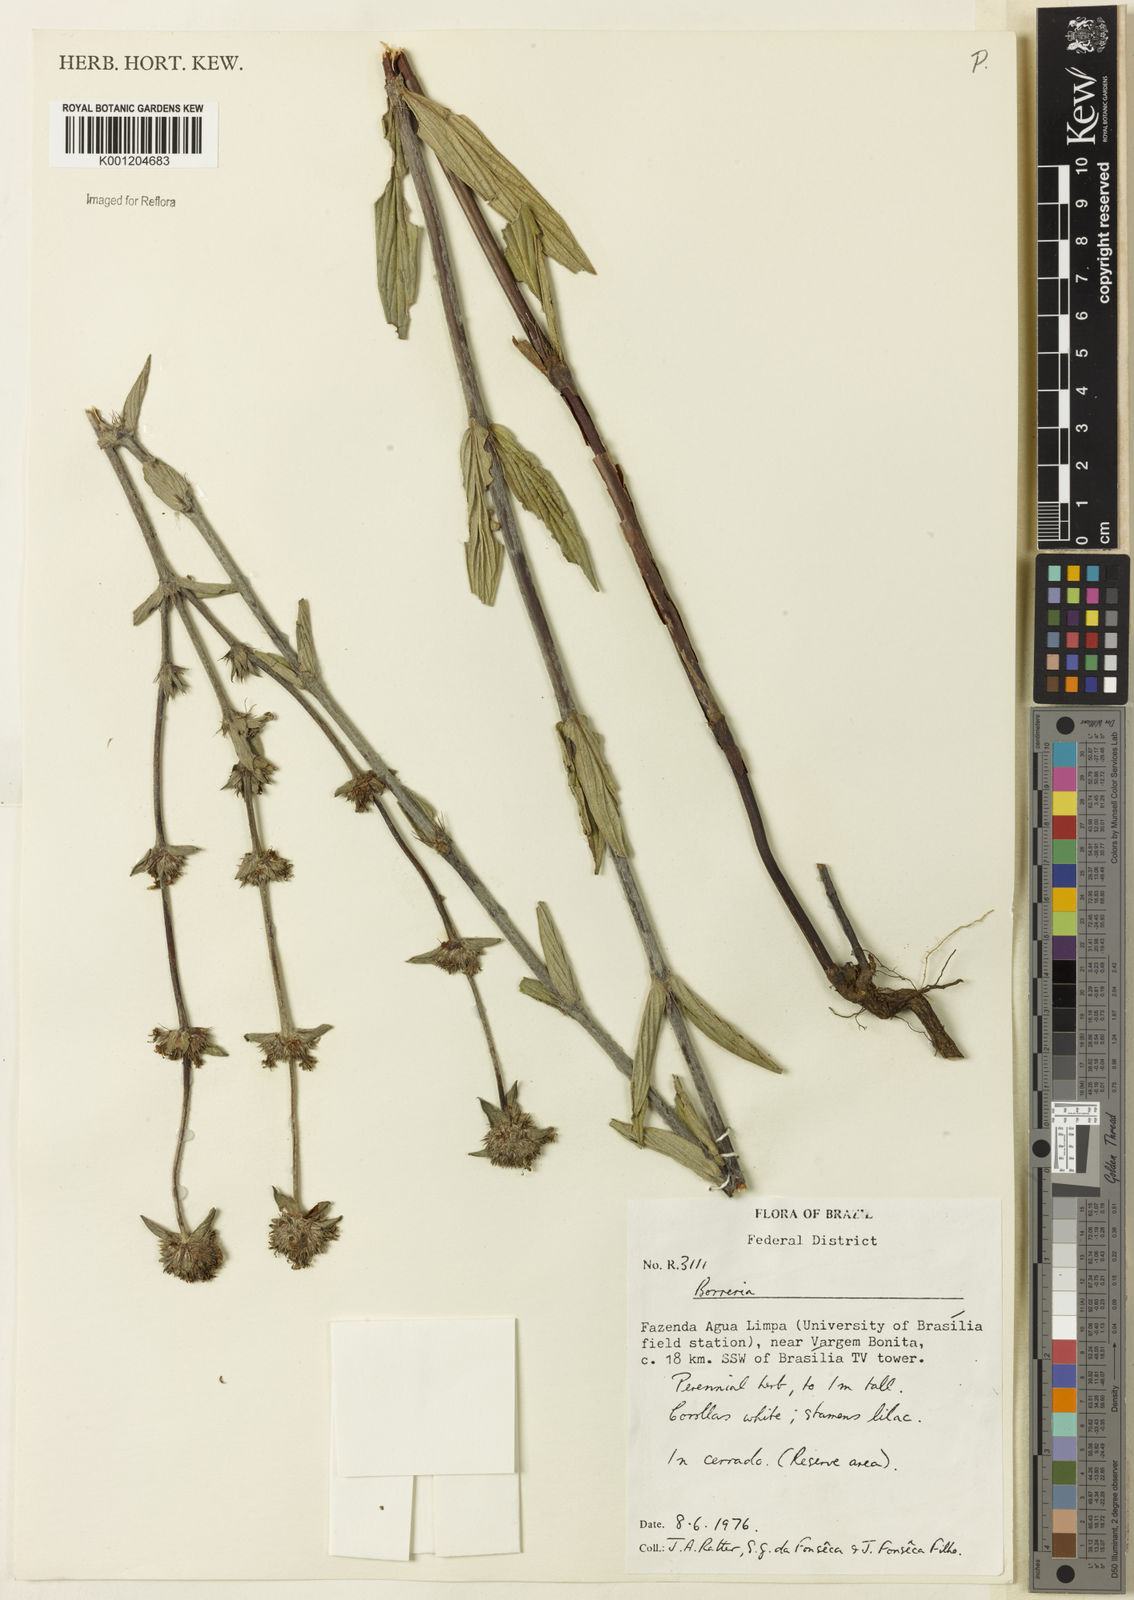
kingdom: Plantae
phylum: Tracheophyta
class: Magnoliopsida
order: Gentianales
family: Rubiaceae
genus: Planaltina
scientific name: Planaltina capitata
